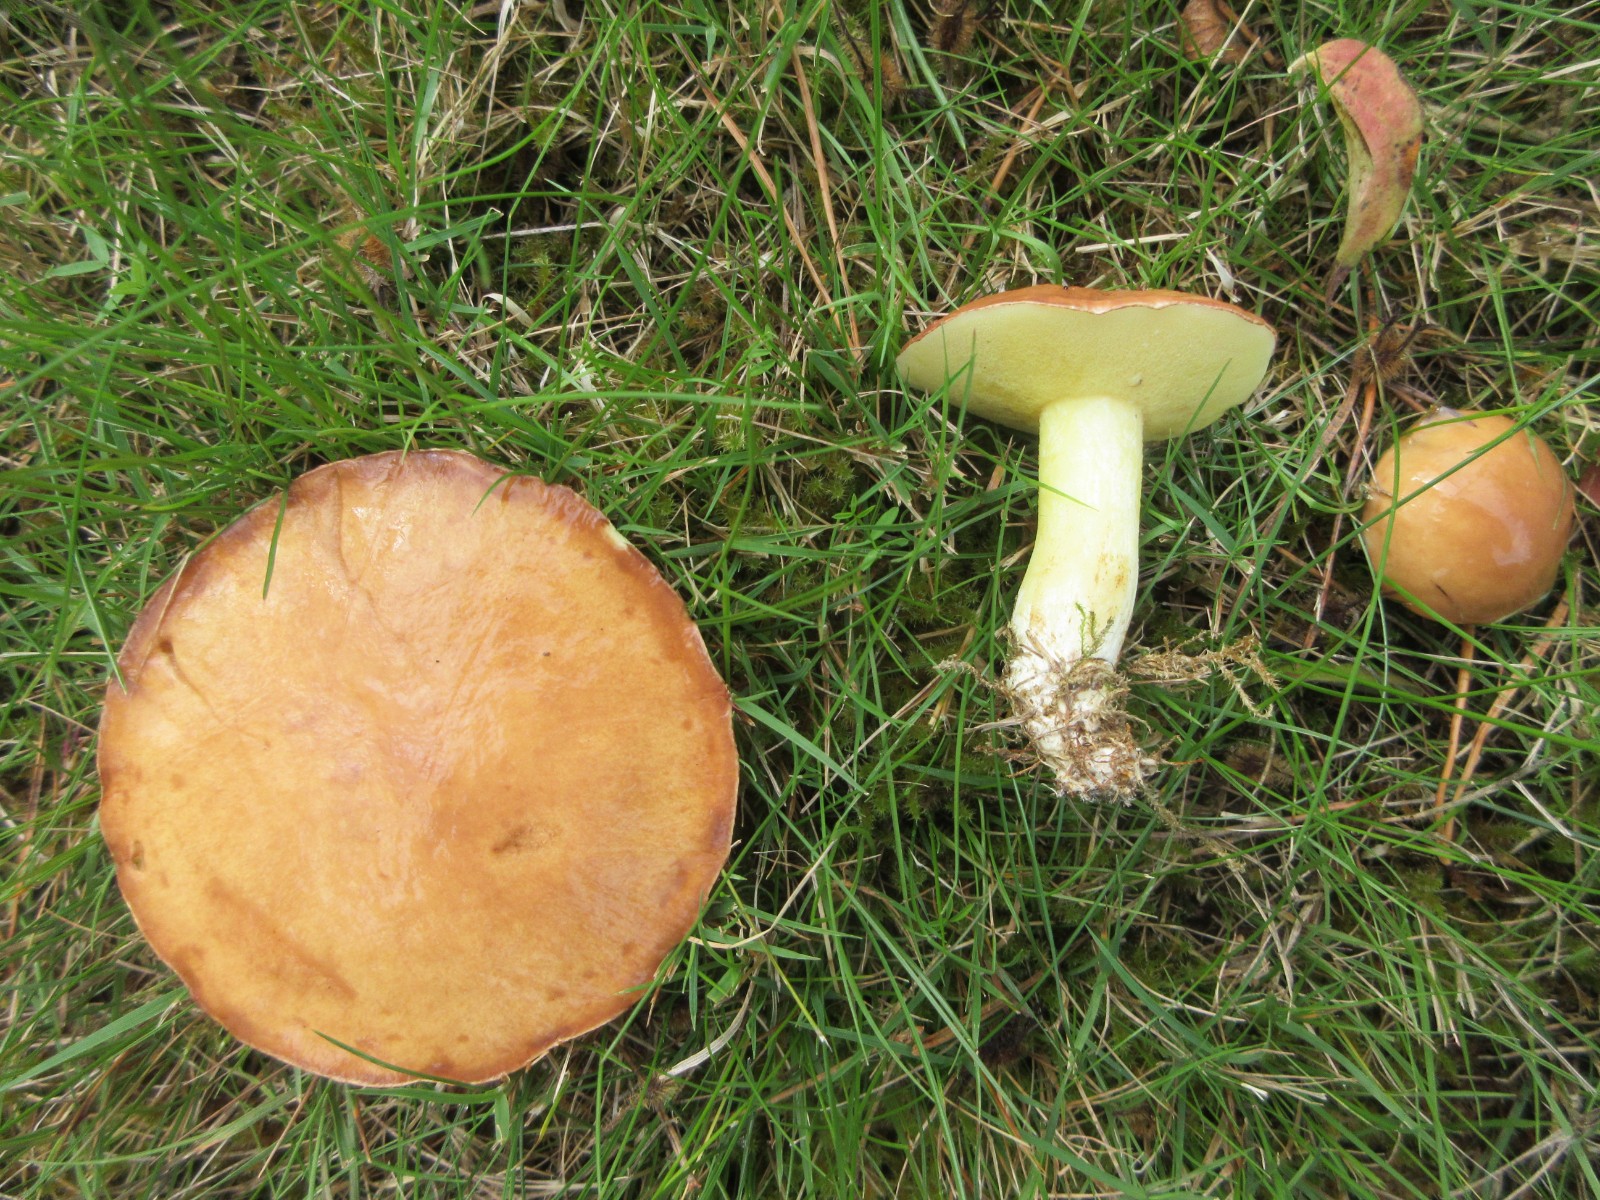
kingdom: Fungi
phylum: Basidiomycota
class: Agaricomycetes
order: Boletales
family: Suillaceae
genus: Suillus
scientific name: Suillus granulatus
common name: kornet slimrørhat
